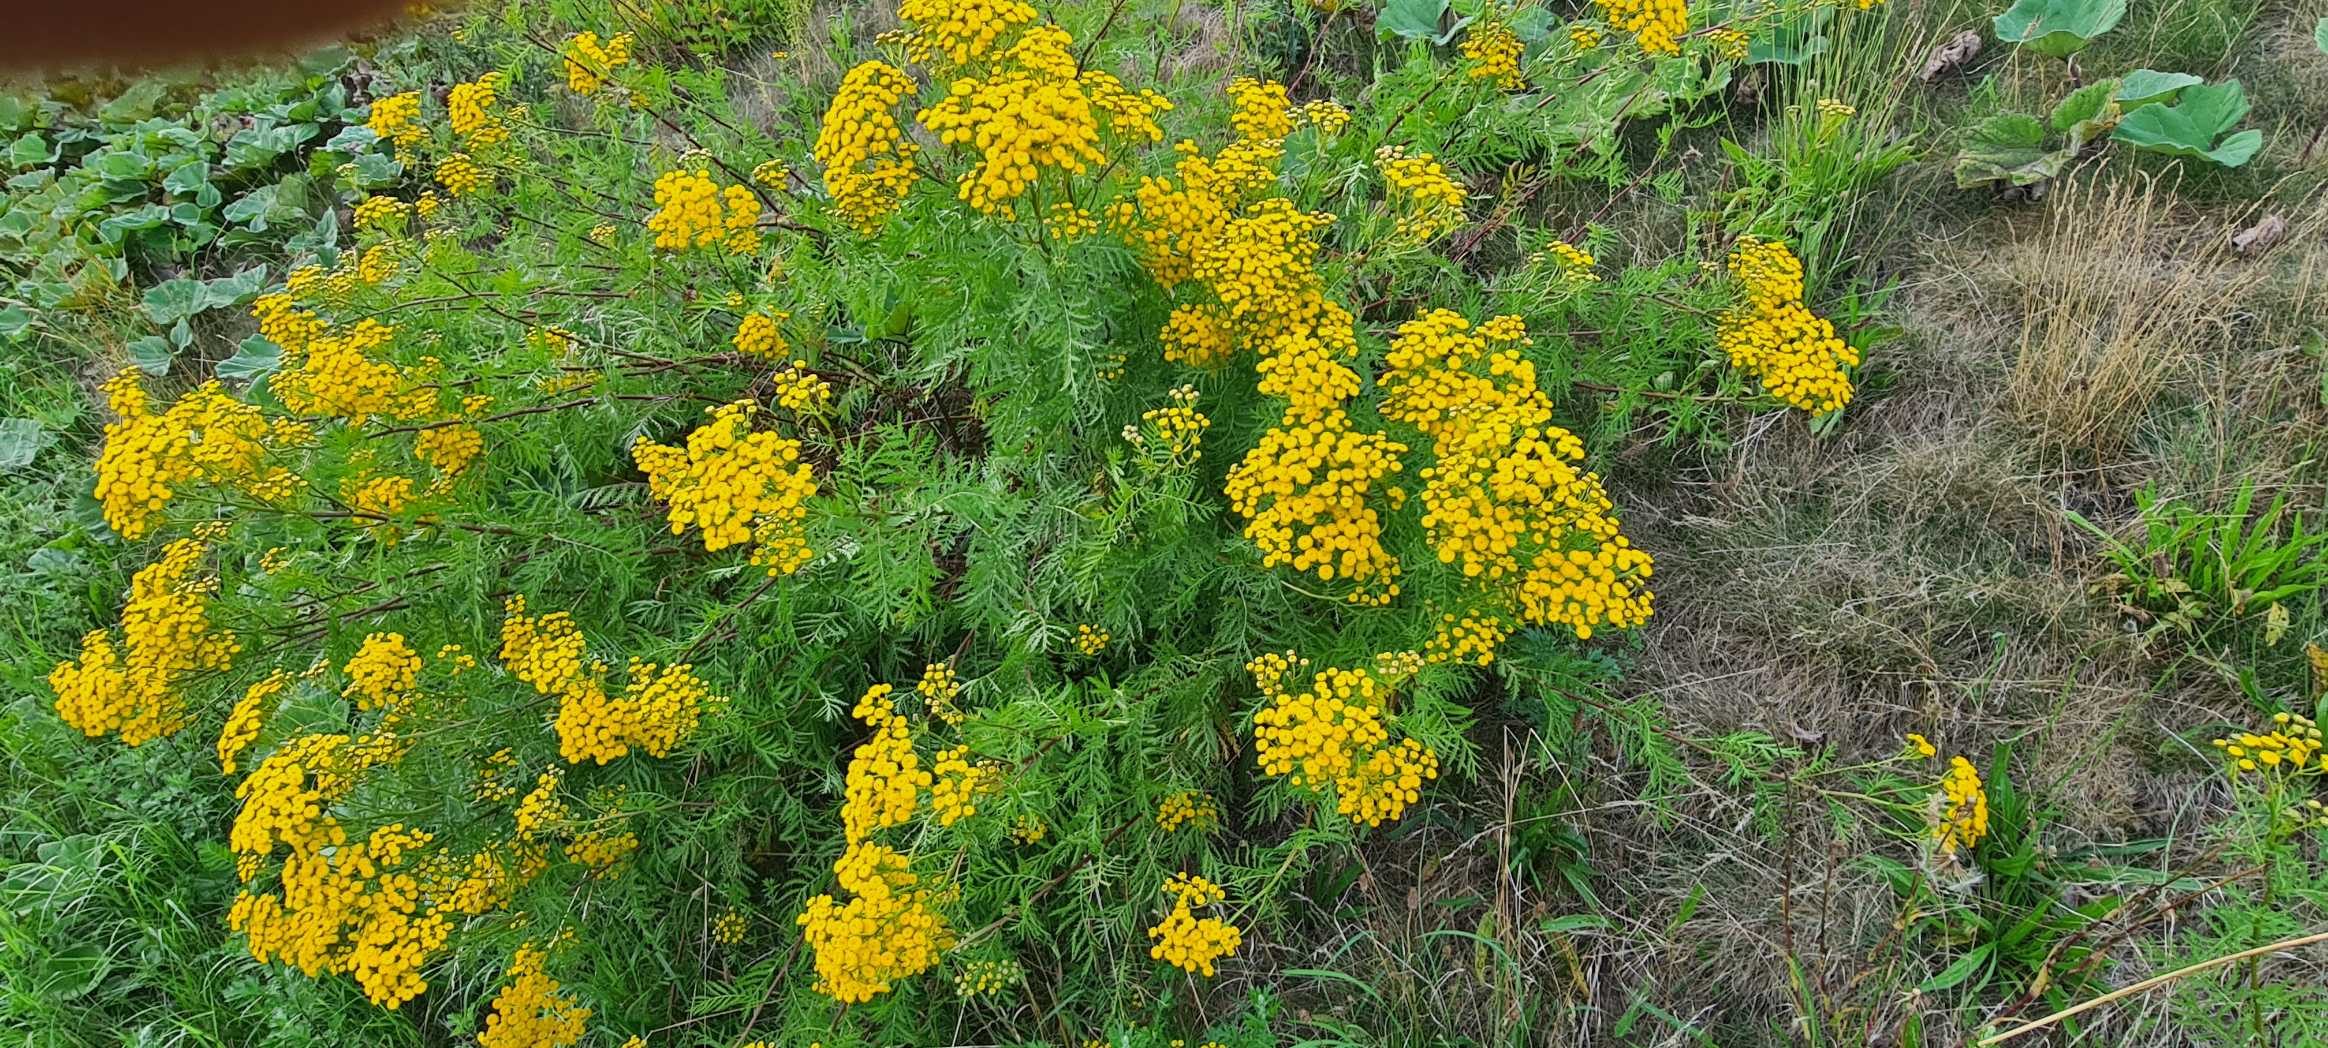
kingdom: Plantae
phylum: Tracheophyta
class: Magnoliopsida
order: Asterales
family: Asteraceae
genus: Tanacetum
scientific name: Tanacetum vulgare
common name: Rejnfan
